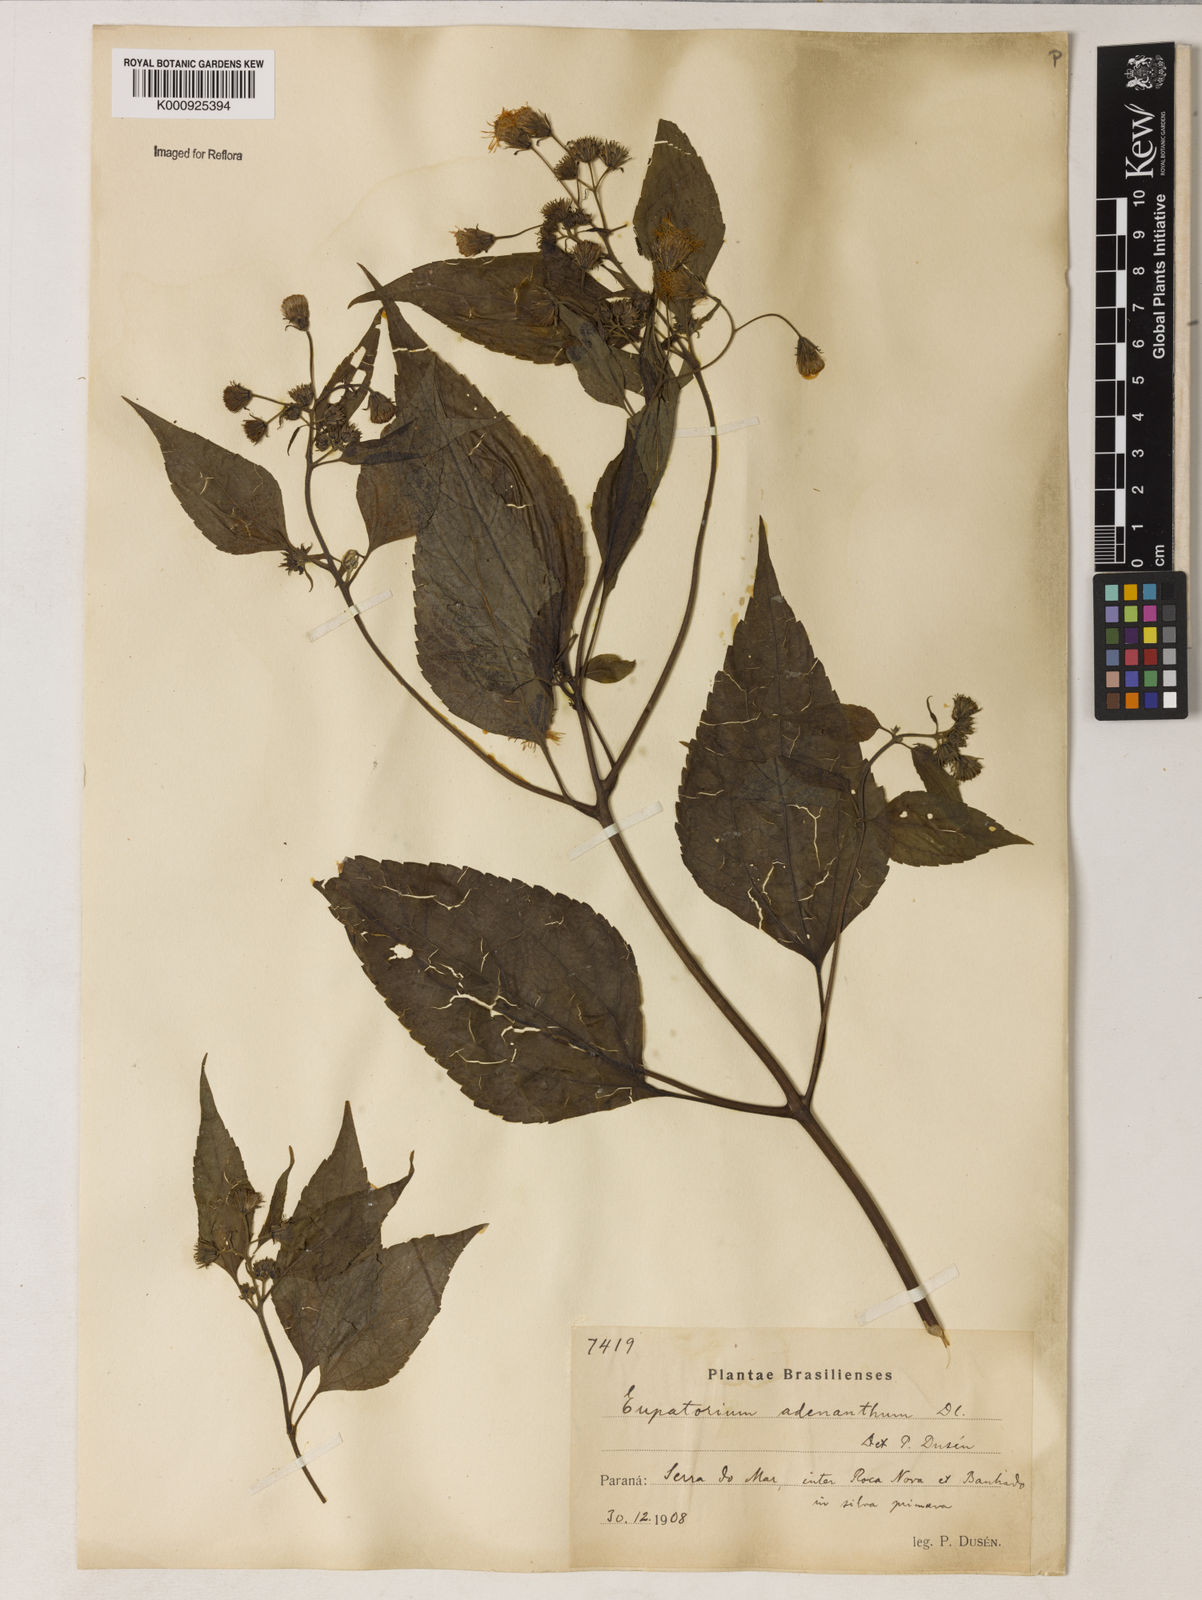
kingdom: Plantae
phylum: Tracheophyta
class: Magnoliopsida
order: Asterales
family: Asteraceae
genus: Trichogoniopsis
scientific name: Trichogoniopsis adenantha
